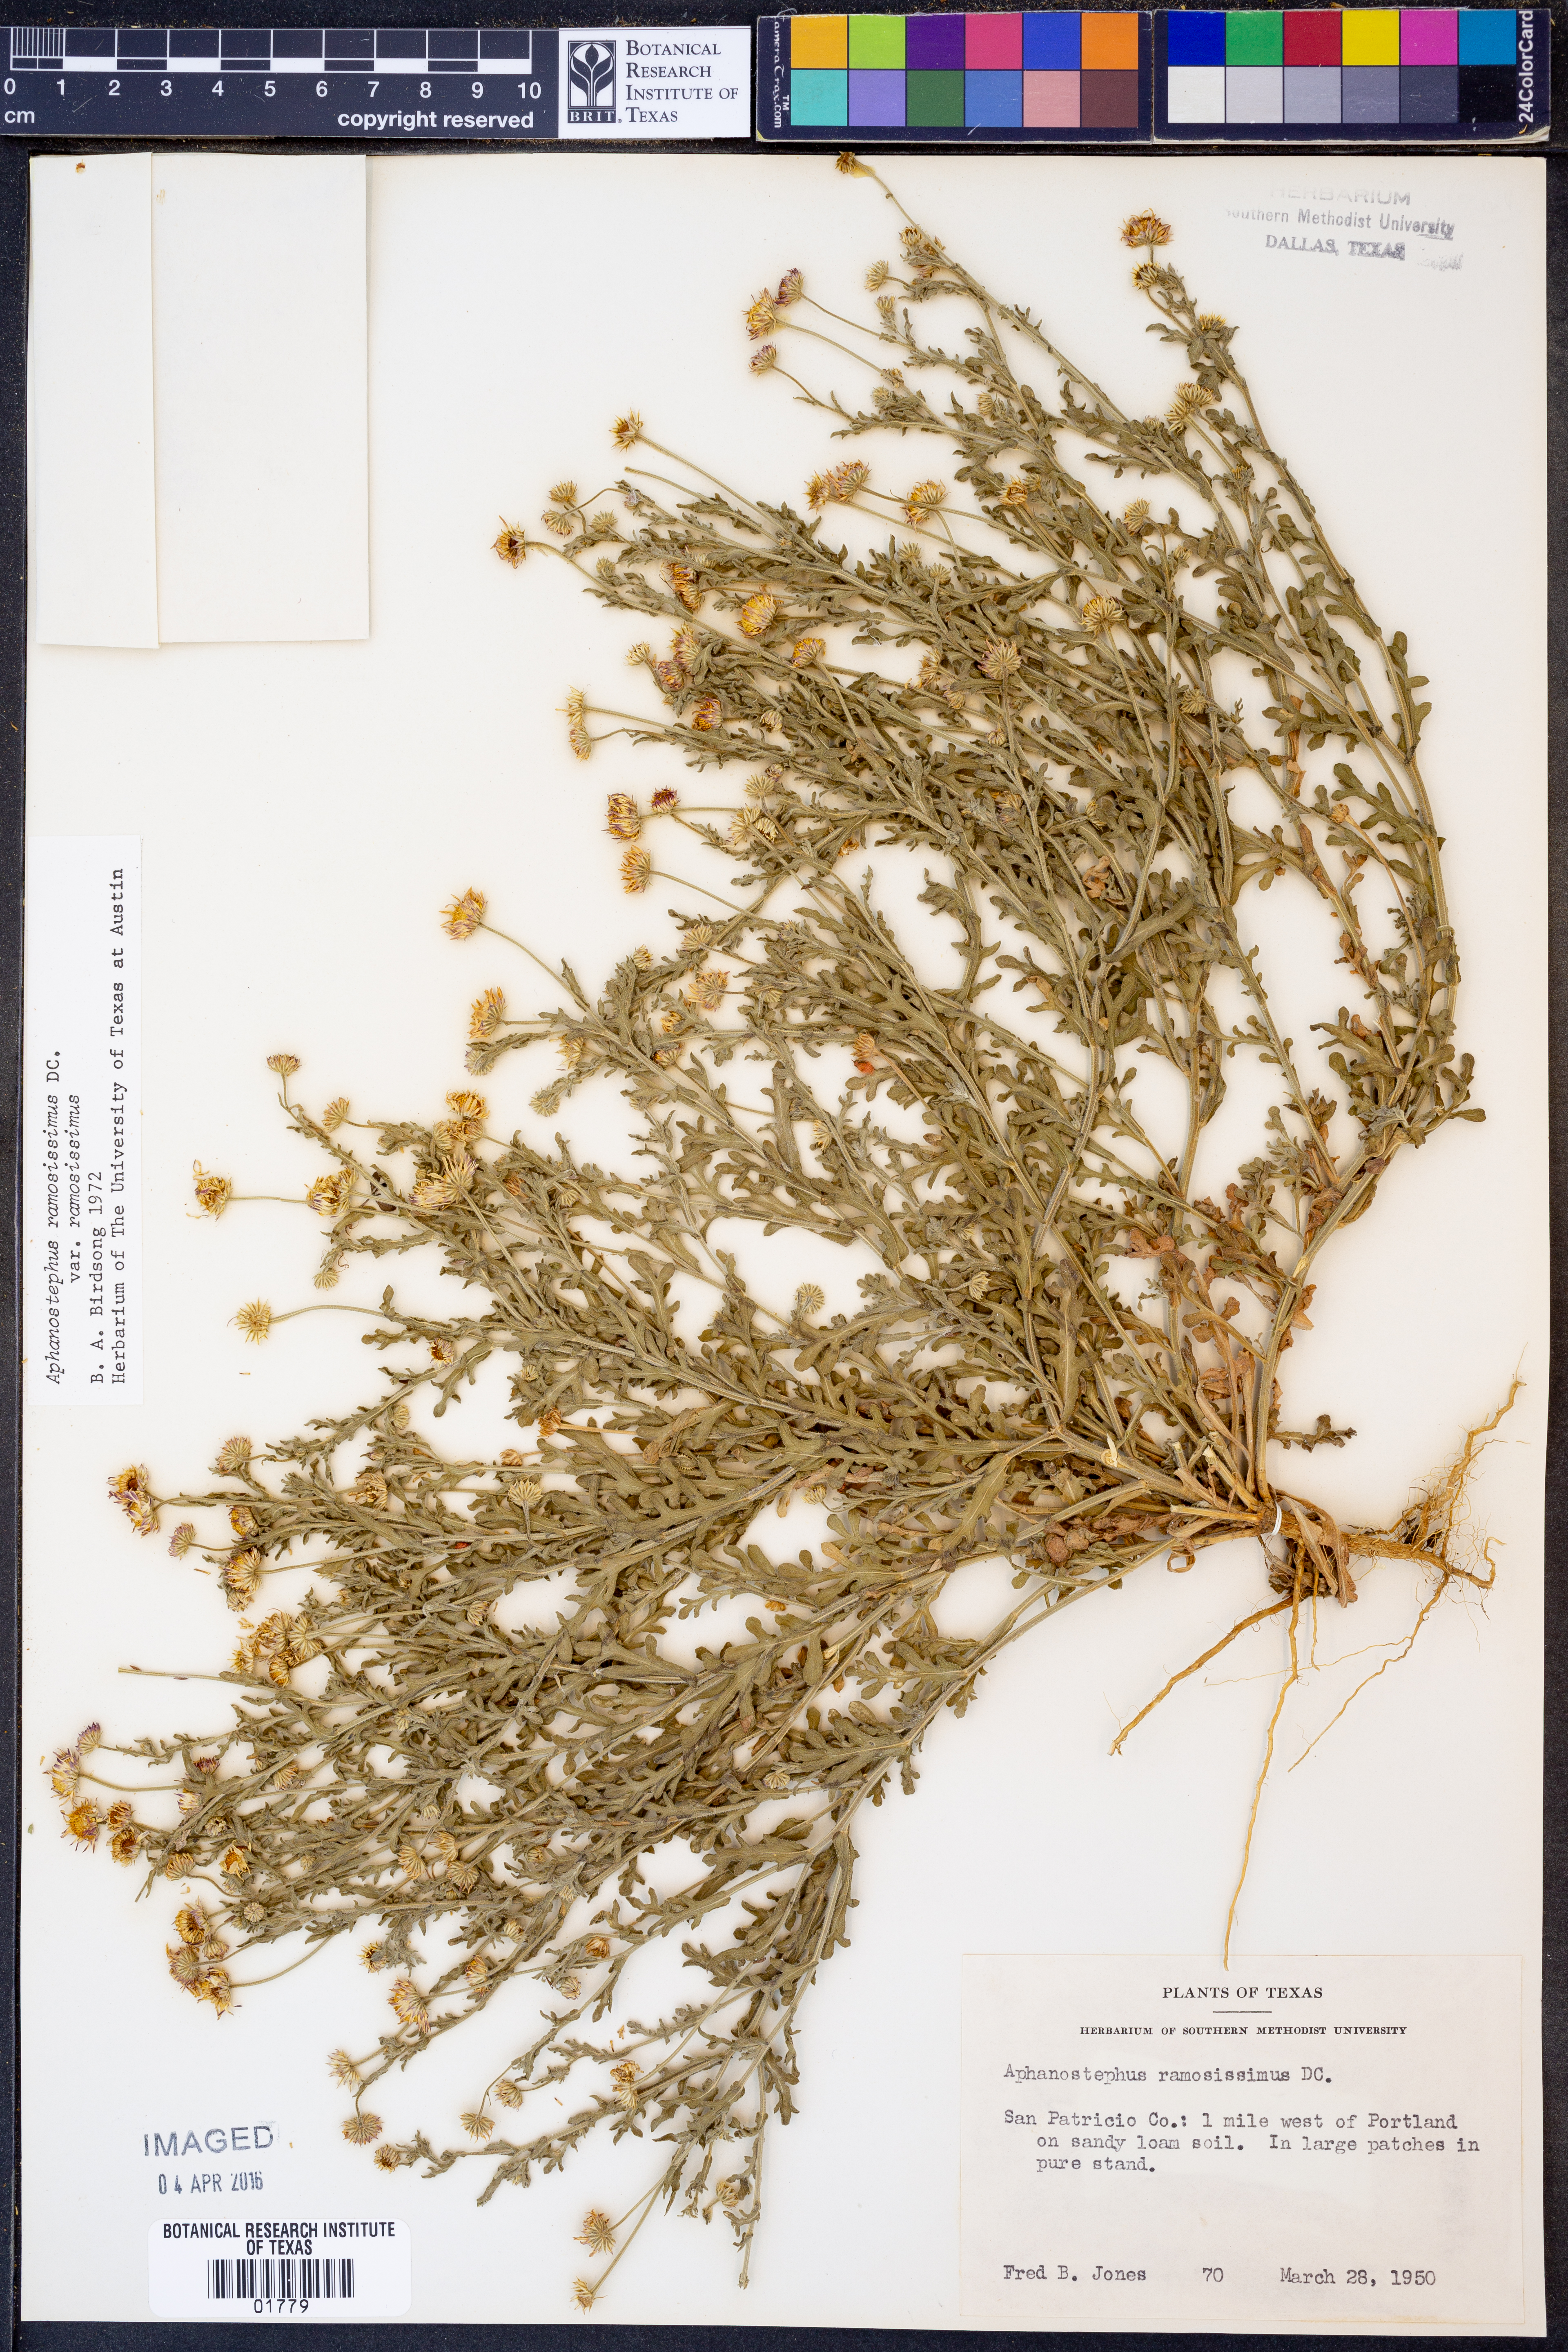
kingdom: Plantae
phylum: Tracheophyta
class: Magnoliopsida
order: Asterales
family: Asteraceae
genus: Aphanostephus
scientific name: Aphanostephus ramosissimus
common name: Plains lazy daisy
